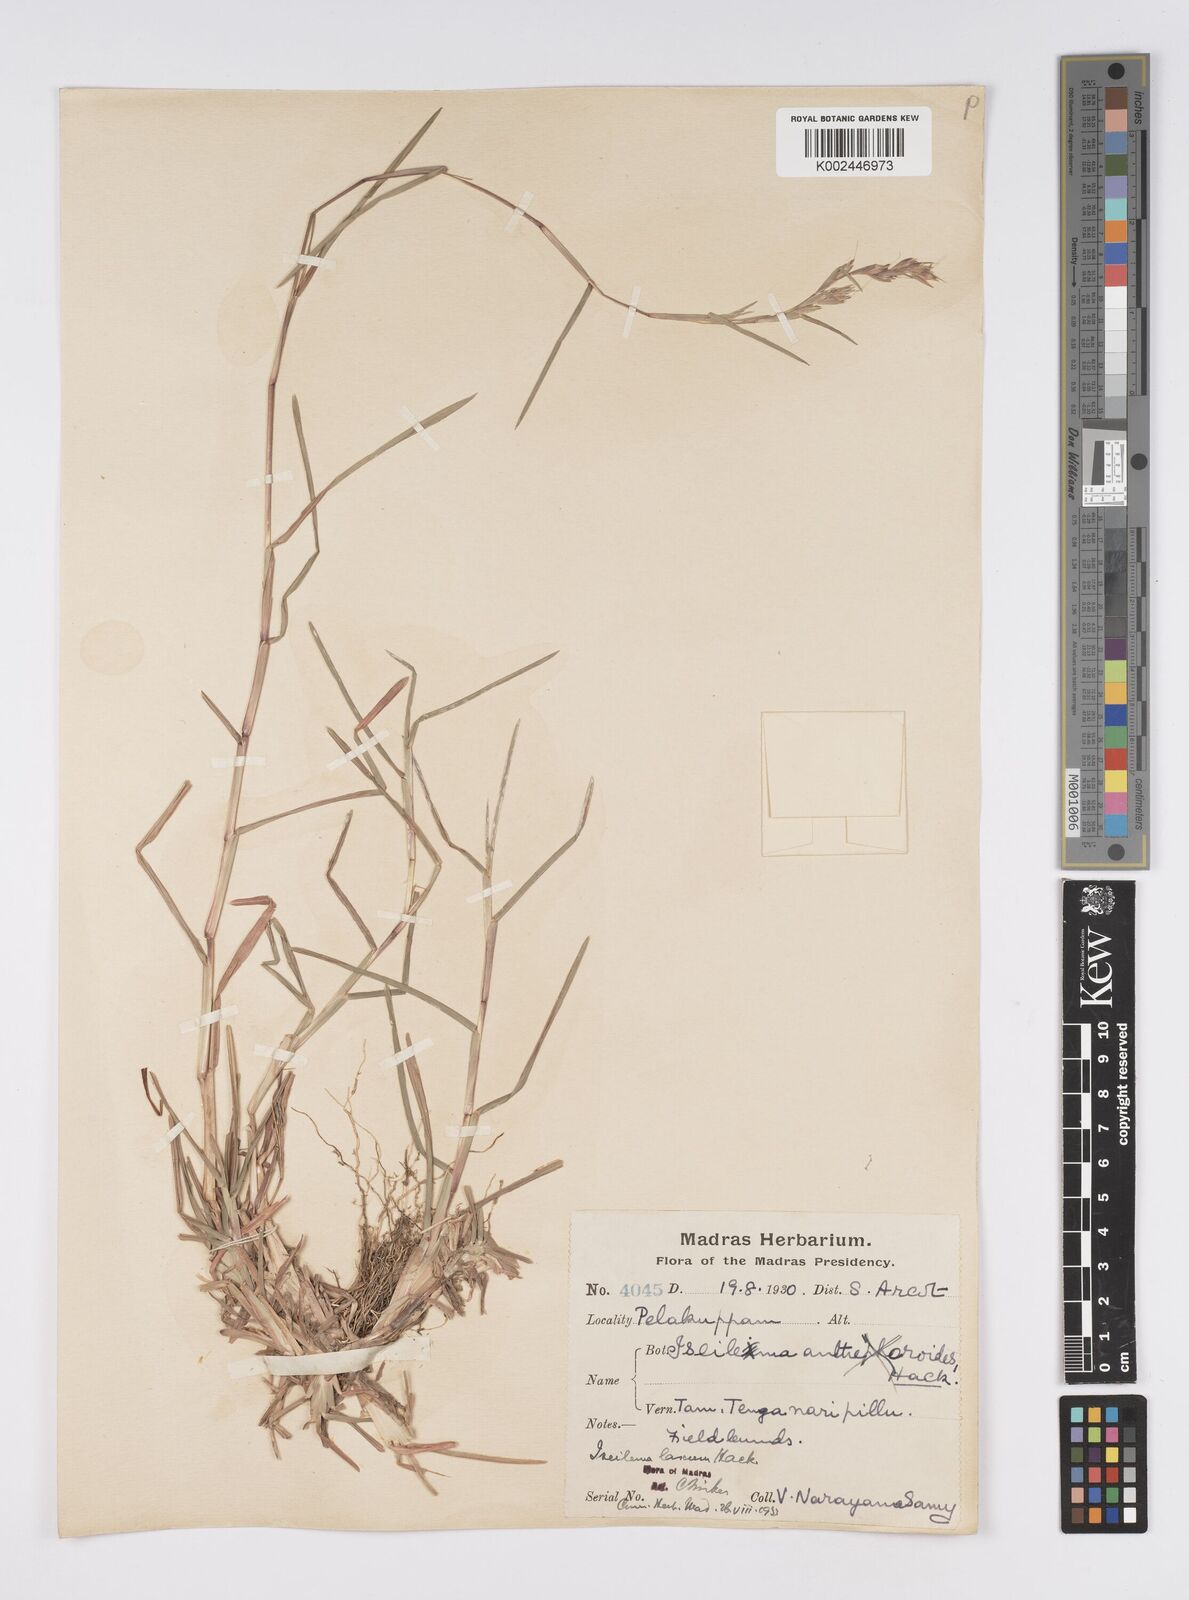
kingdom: Plantae
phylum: Tracheophyta
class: Liliopsida
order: Poales
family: Poaceae
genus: Iseilema
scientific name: Iseilema prostratum
